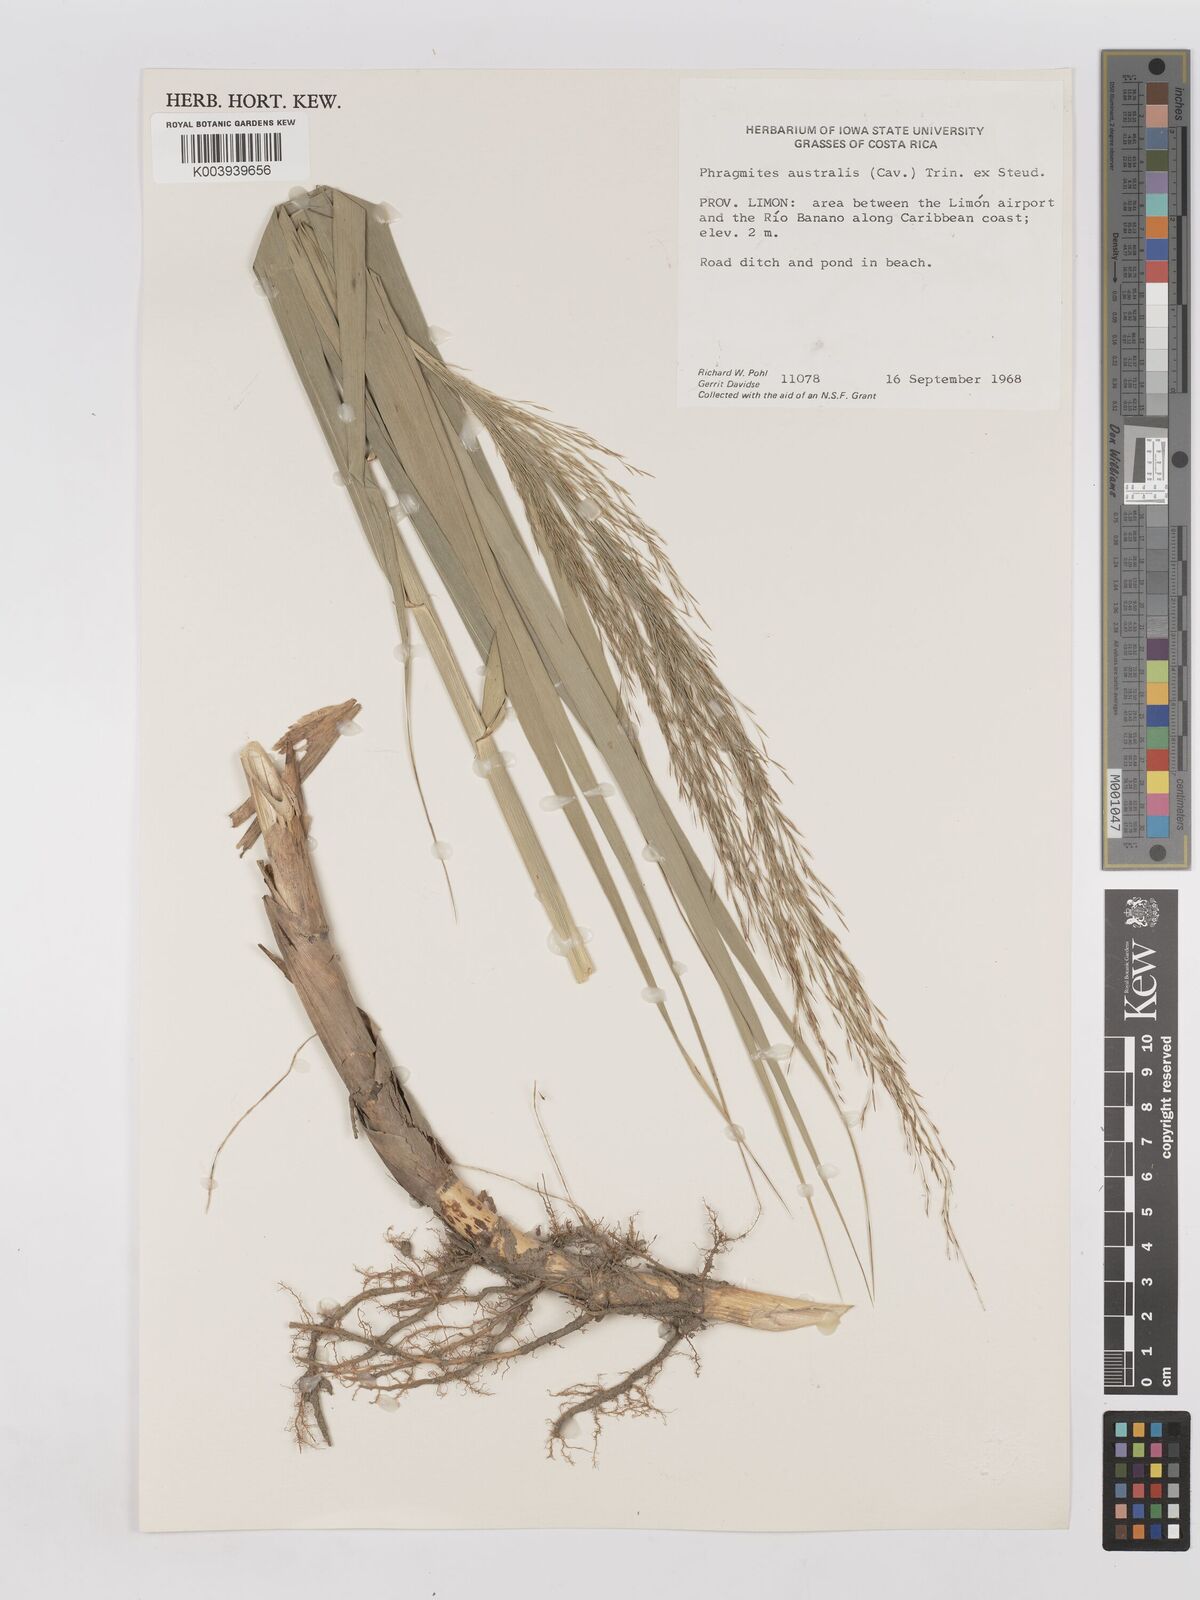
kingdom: Plantae
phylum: Tracheophyta
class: Liliopsida
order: Poales
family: Poaceae
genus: Phragmites
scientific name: Phragmites australis
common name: Common reed
